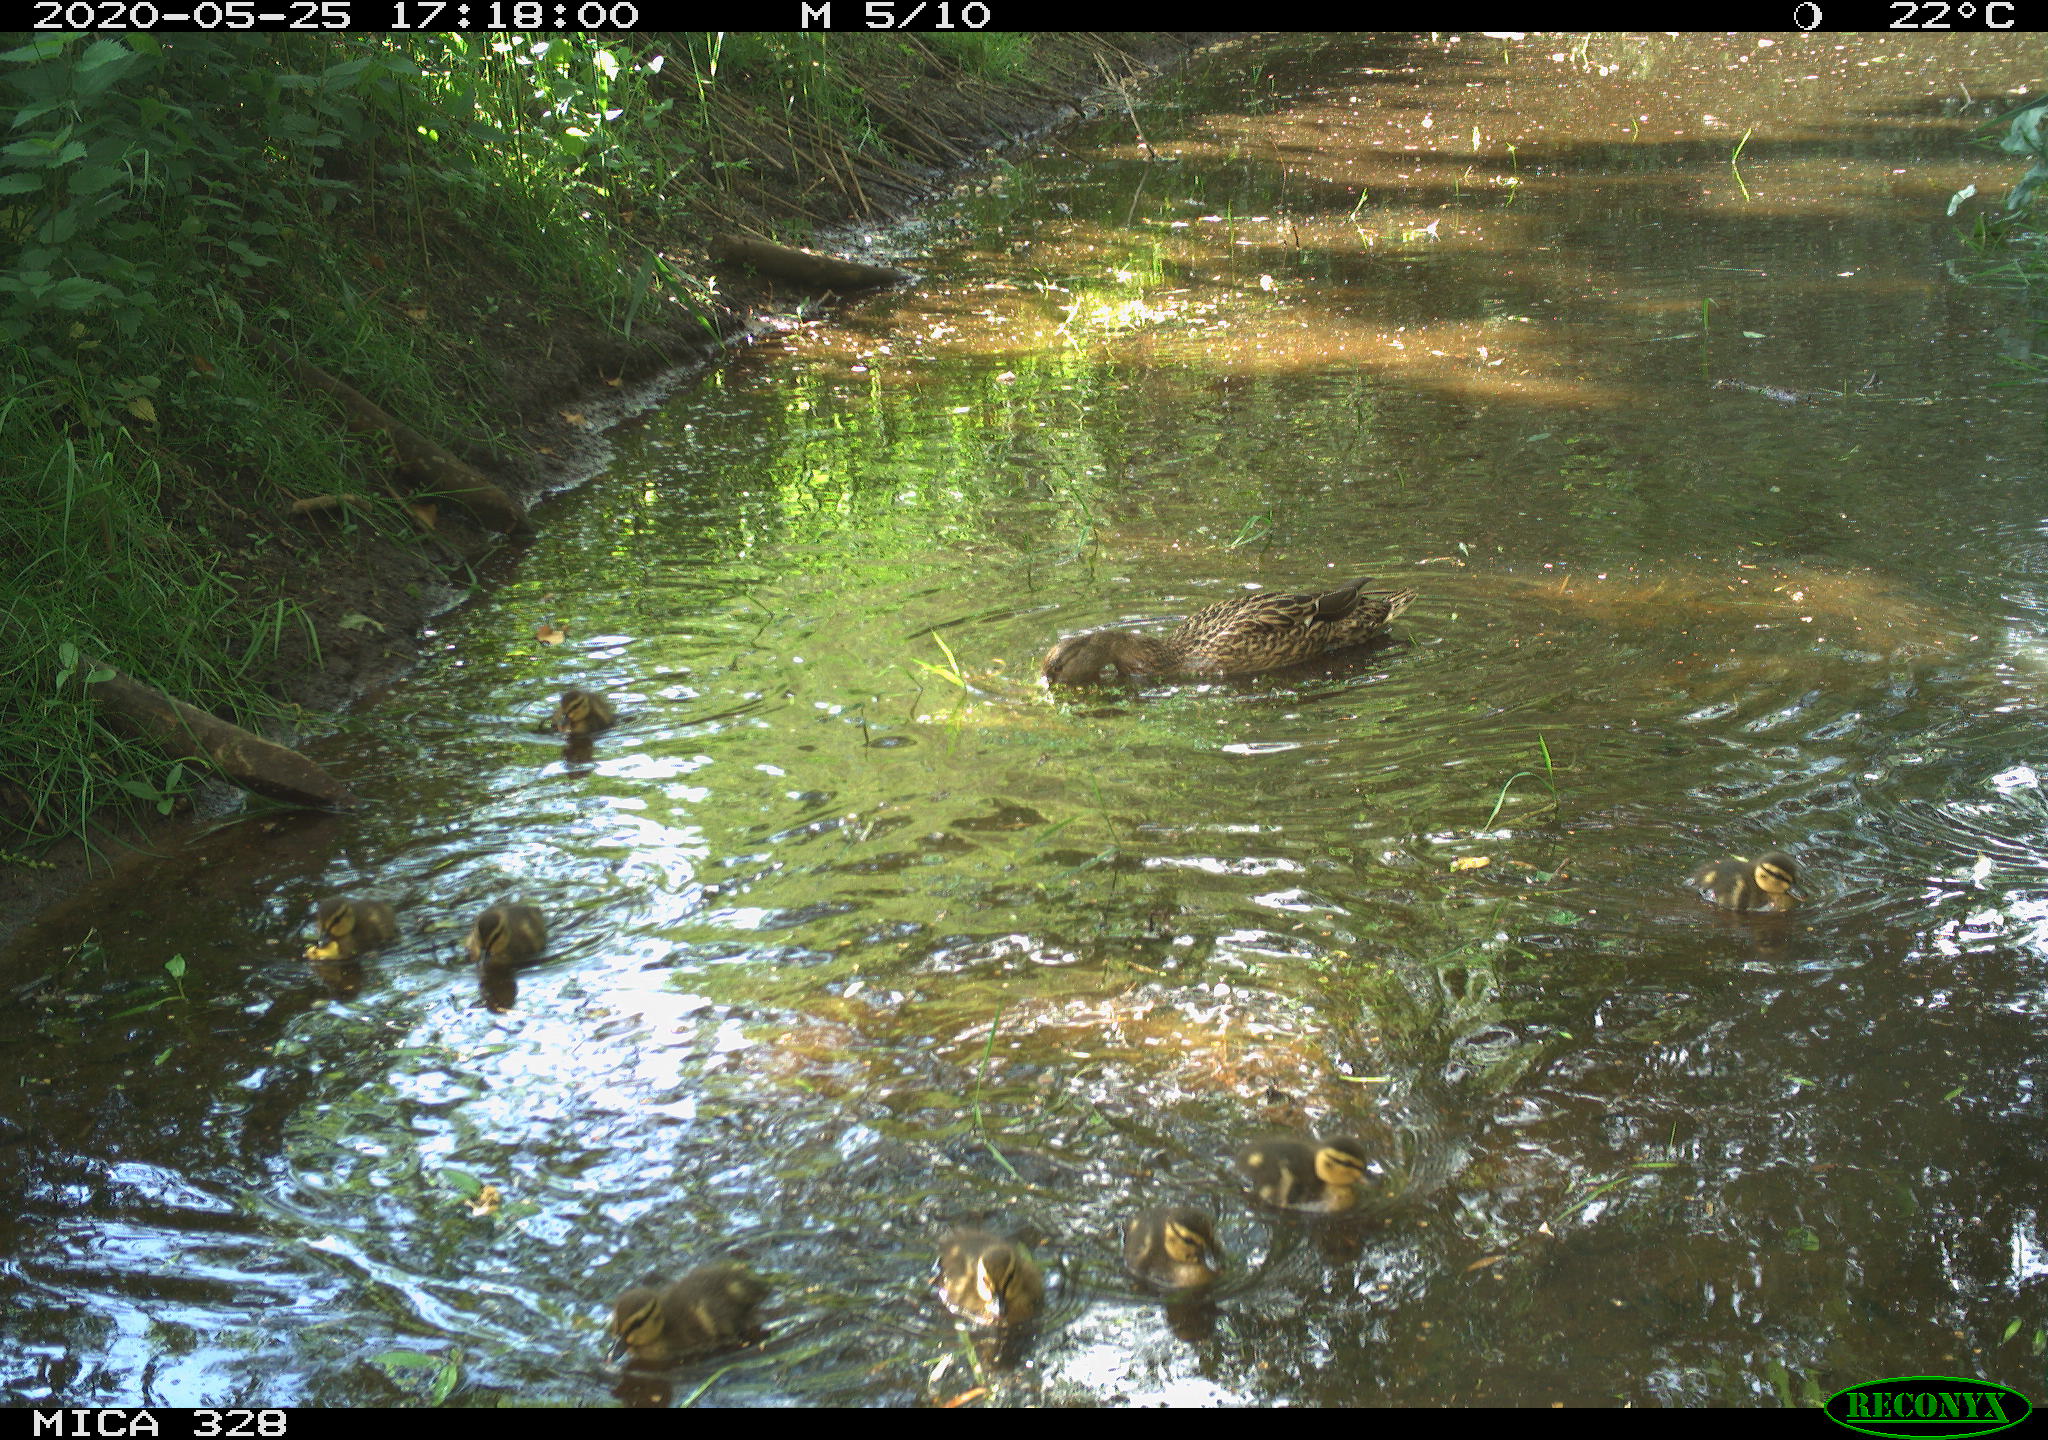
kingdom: Animalia
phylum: Chordata
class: Aves
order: Anseriformes
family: Anatidae
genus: Anas
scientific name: Anas platyrhynchos
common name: Mallard
